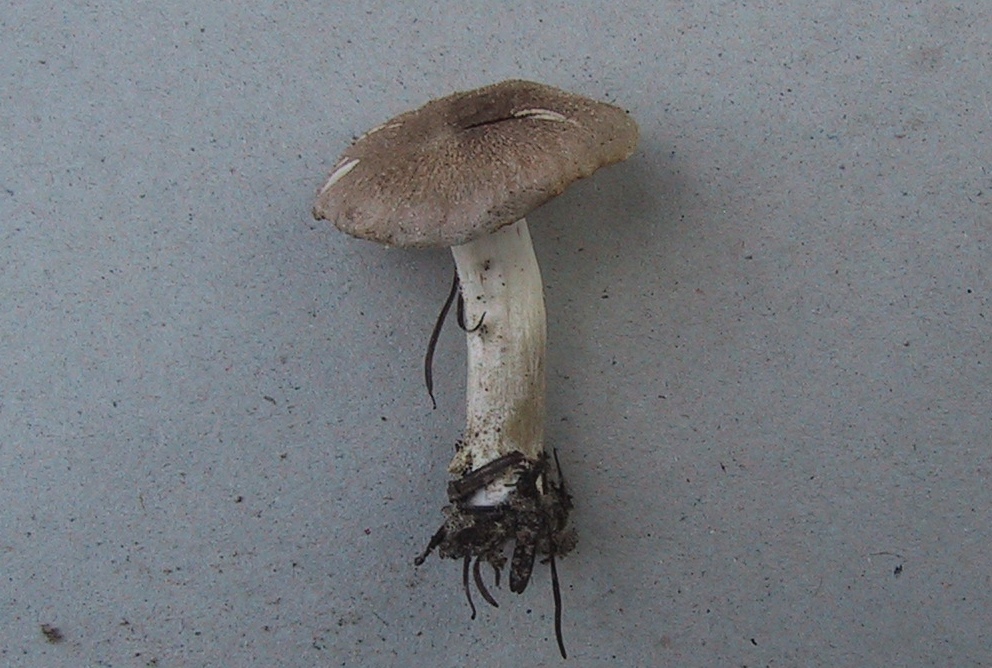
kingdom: Fungi
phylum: Basidiomycota
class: Agaricomycetes
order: Agaricales
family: Tricholomataceae
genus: Tricholoma
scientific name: Tricholoma argyraceum
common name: slør-ridderhat
